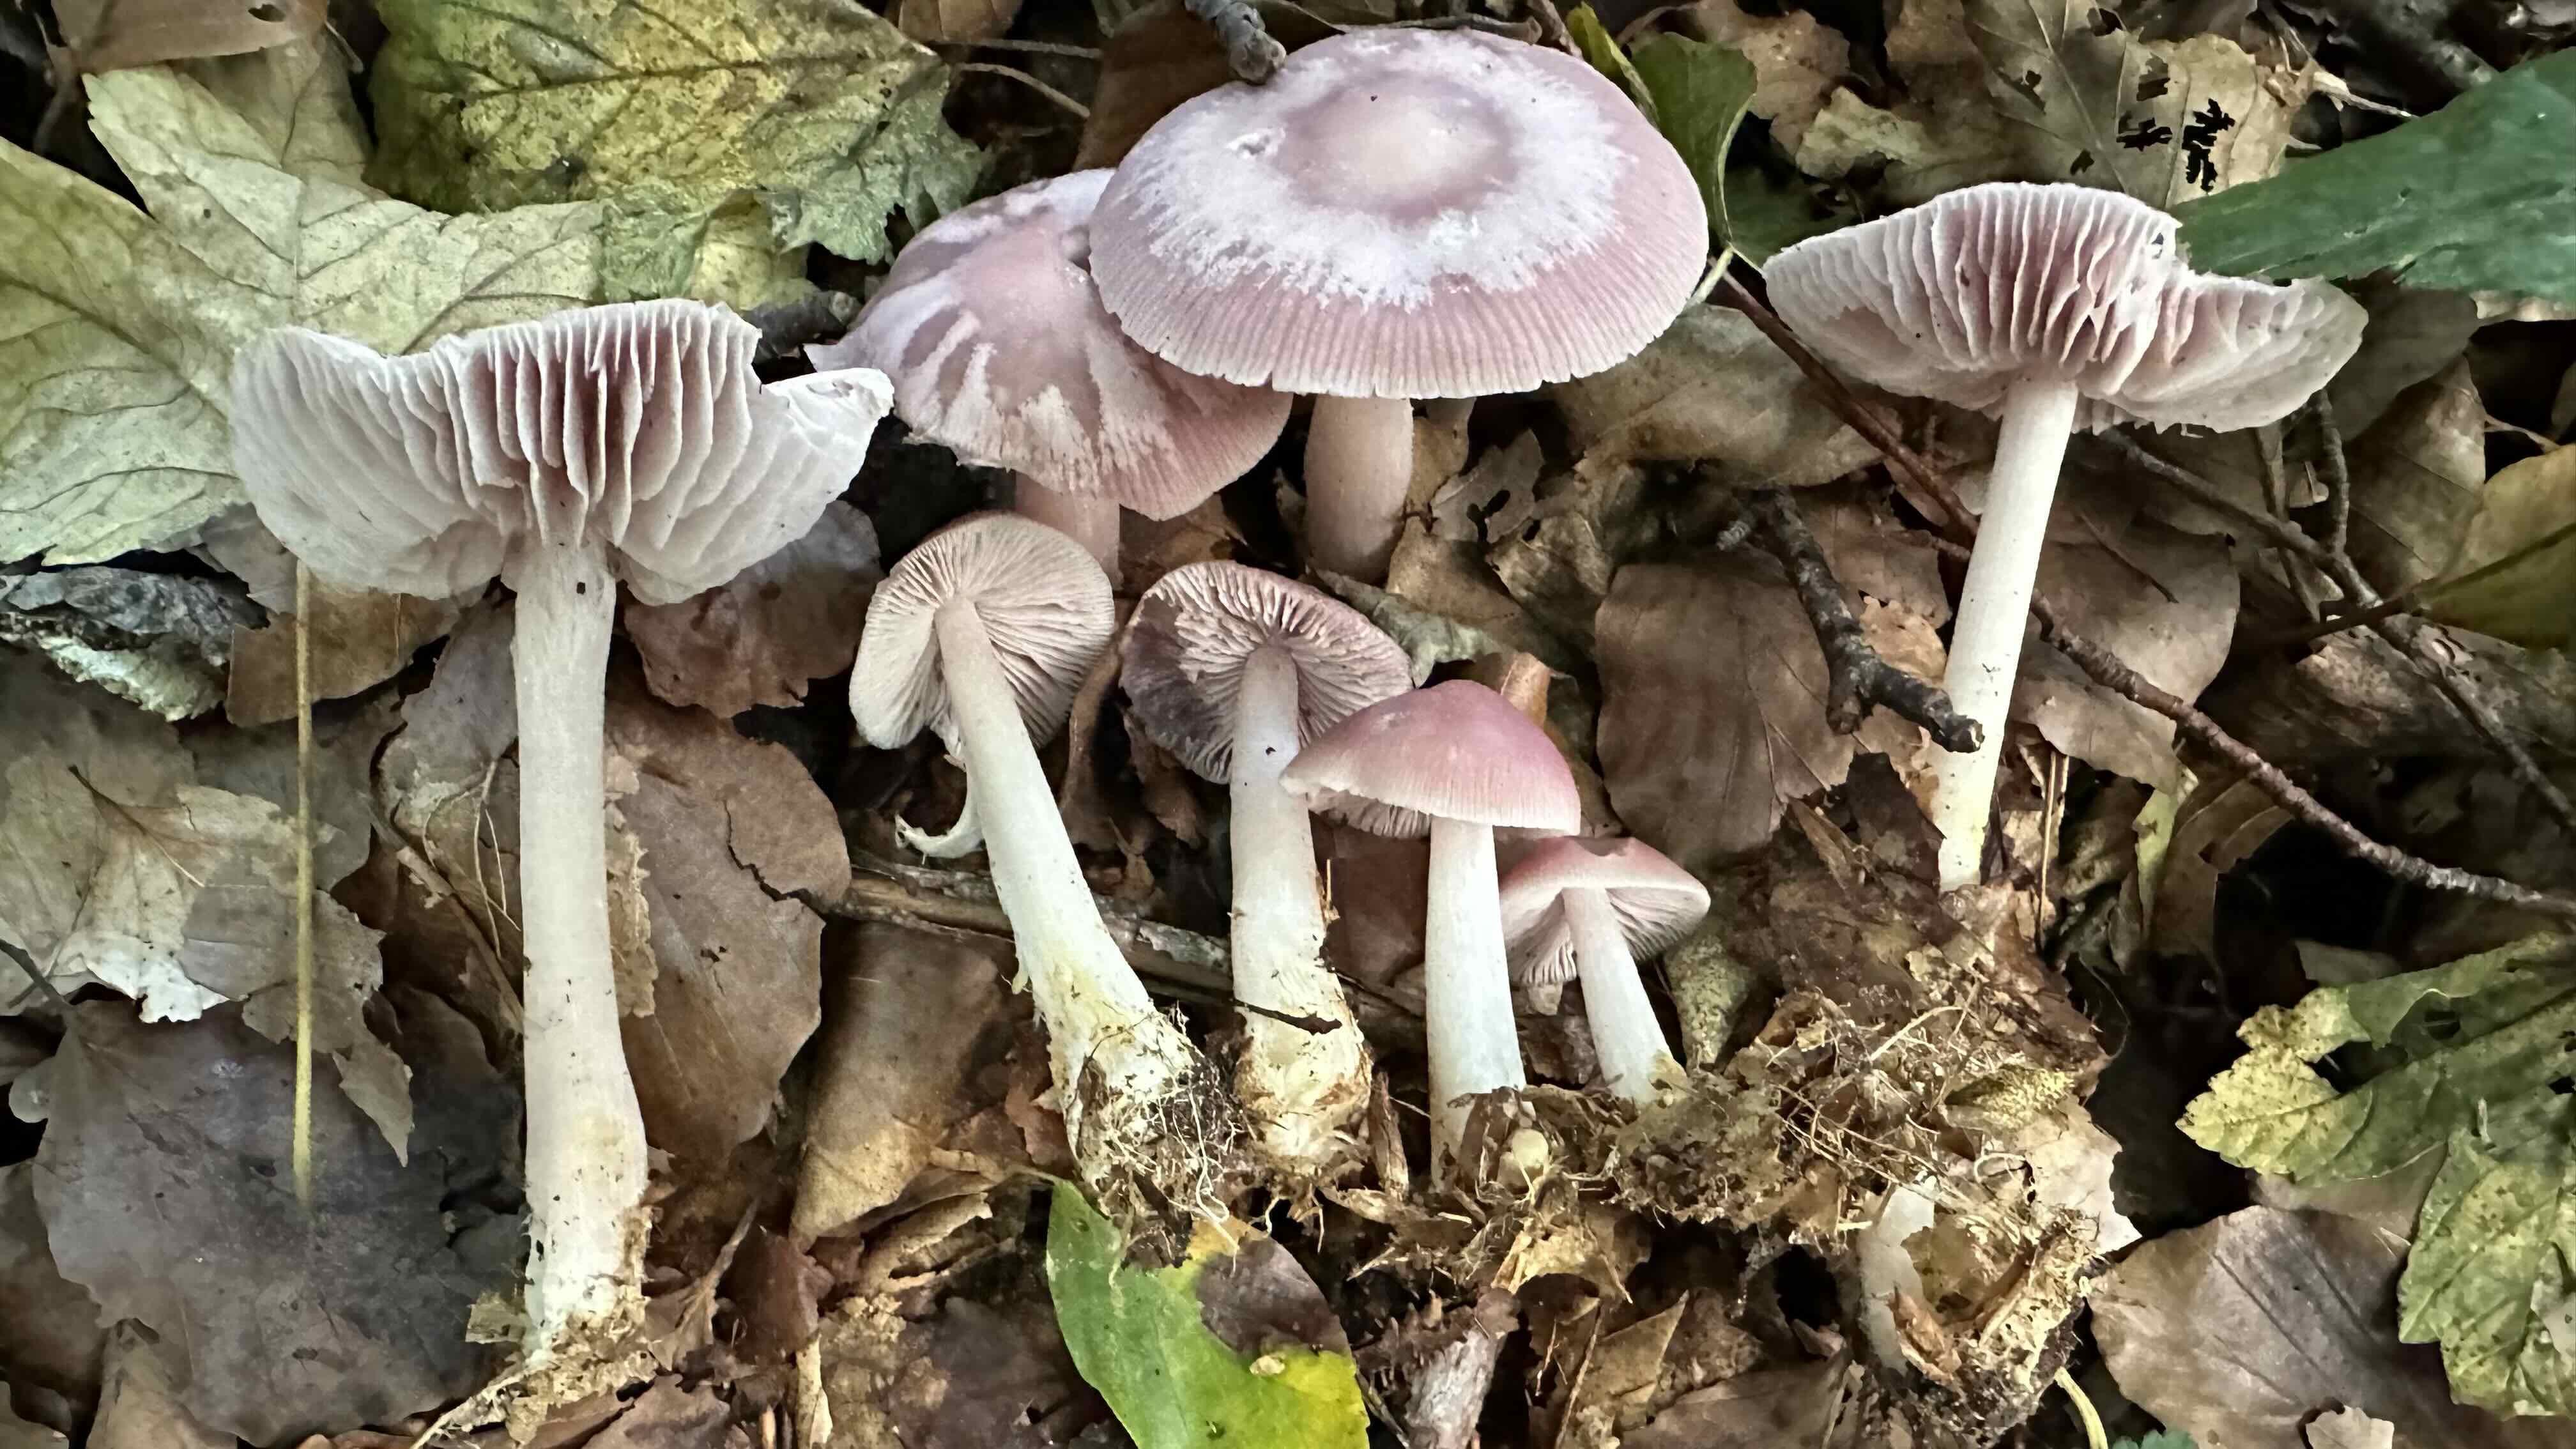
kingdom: Fungi
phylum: Basidiomycota
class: Agaricomycetes
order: Agaricales
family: Mycenaceae
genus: Mycena
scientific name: Mycena rosea
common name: rosa huesvamp
